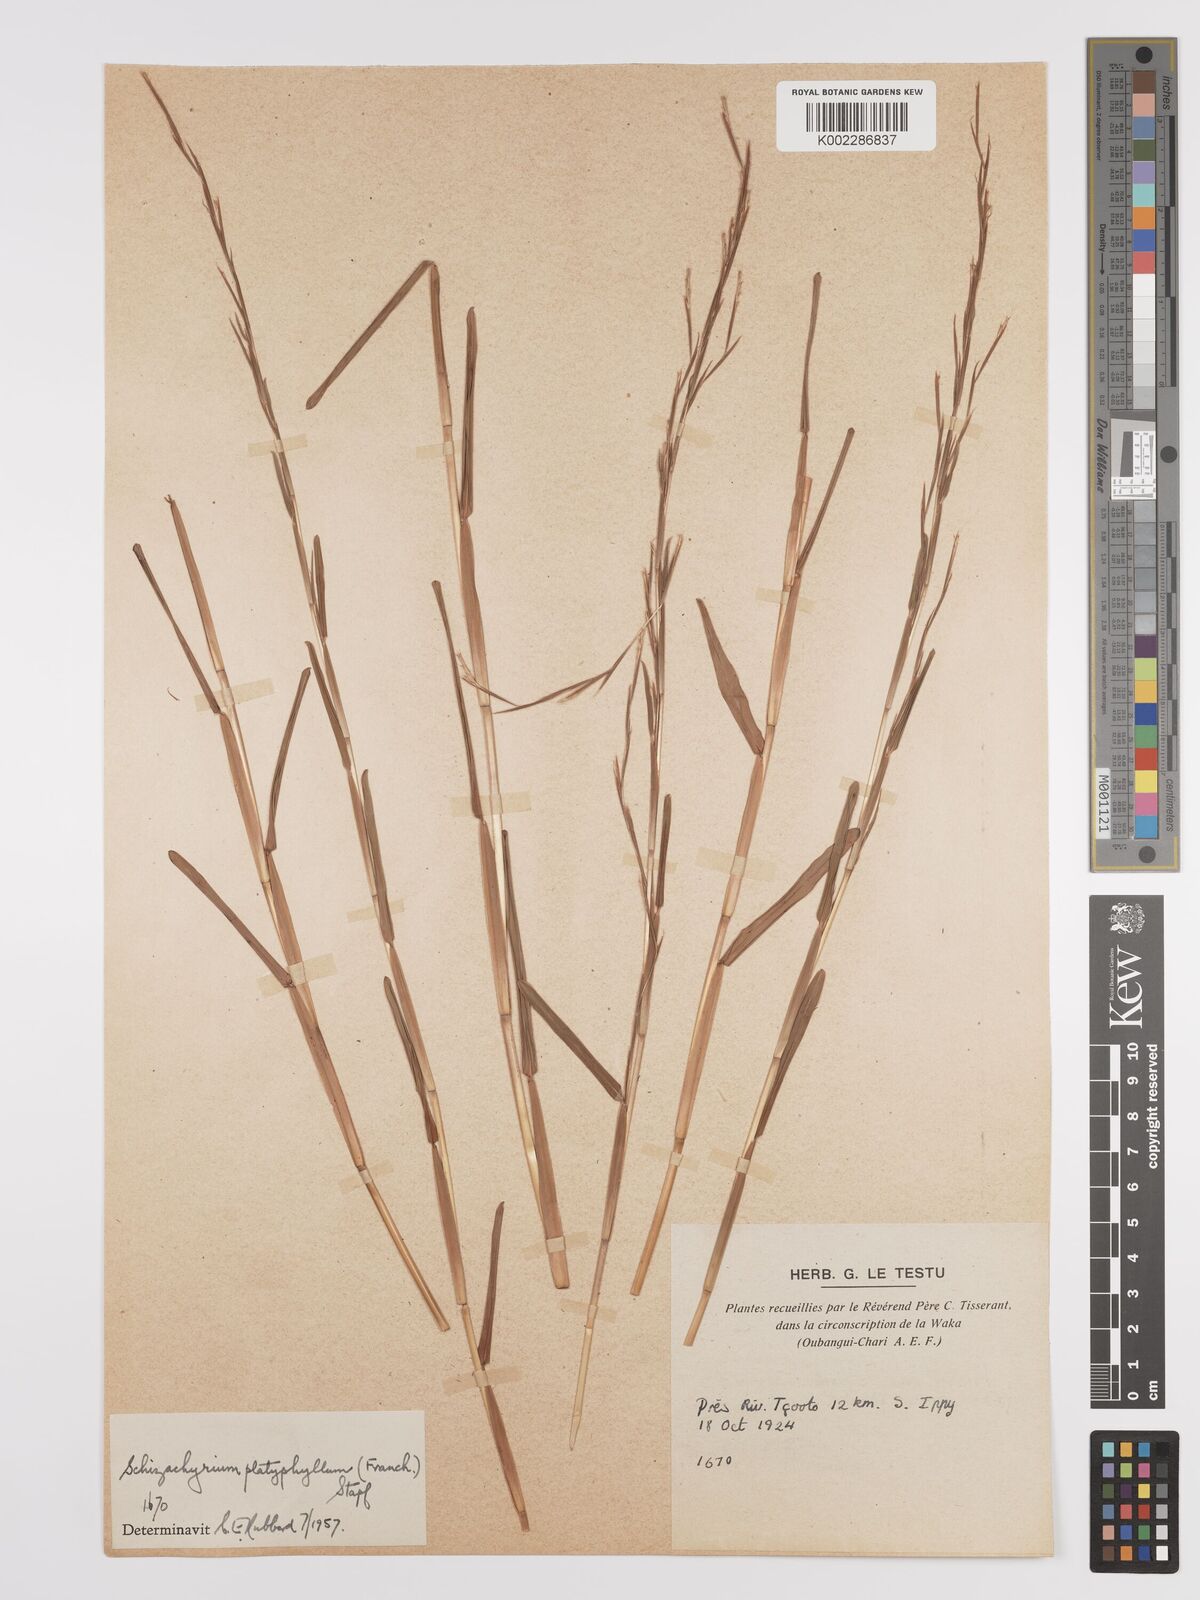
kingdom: Plantae
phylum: Tracheophyta
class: Liliopsida
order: Poales
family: Poaceae
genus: Schizachyrium
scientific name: Schizachyrium platyphyllum
